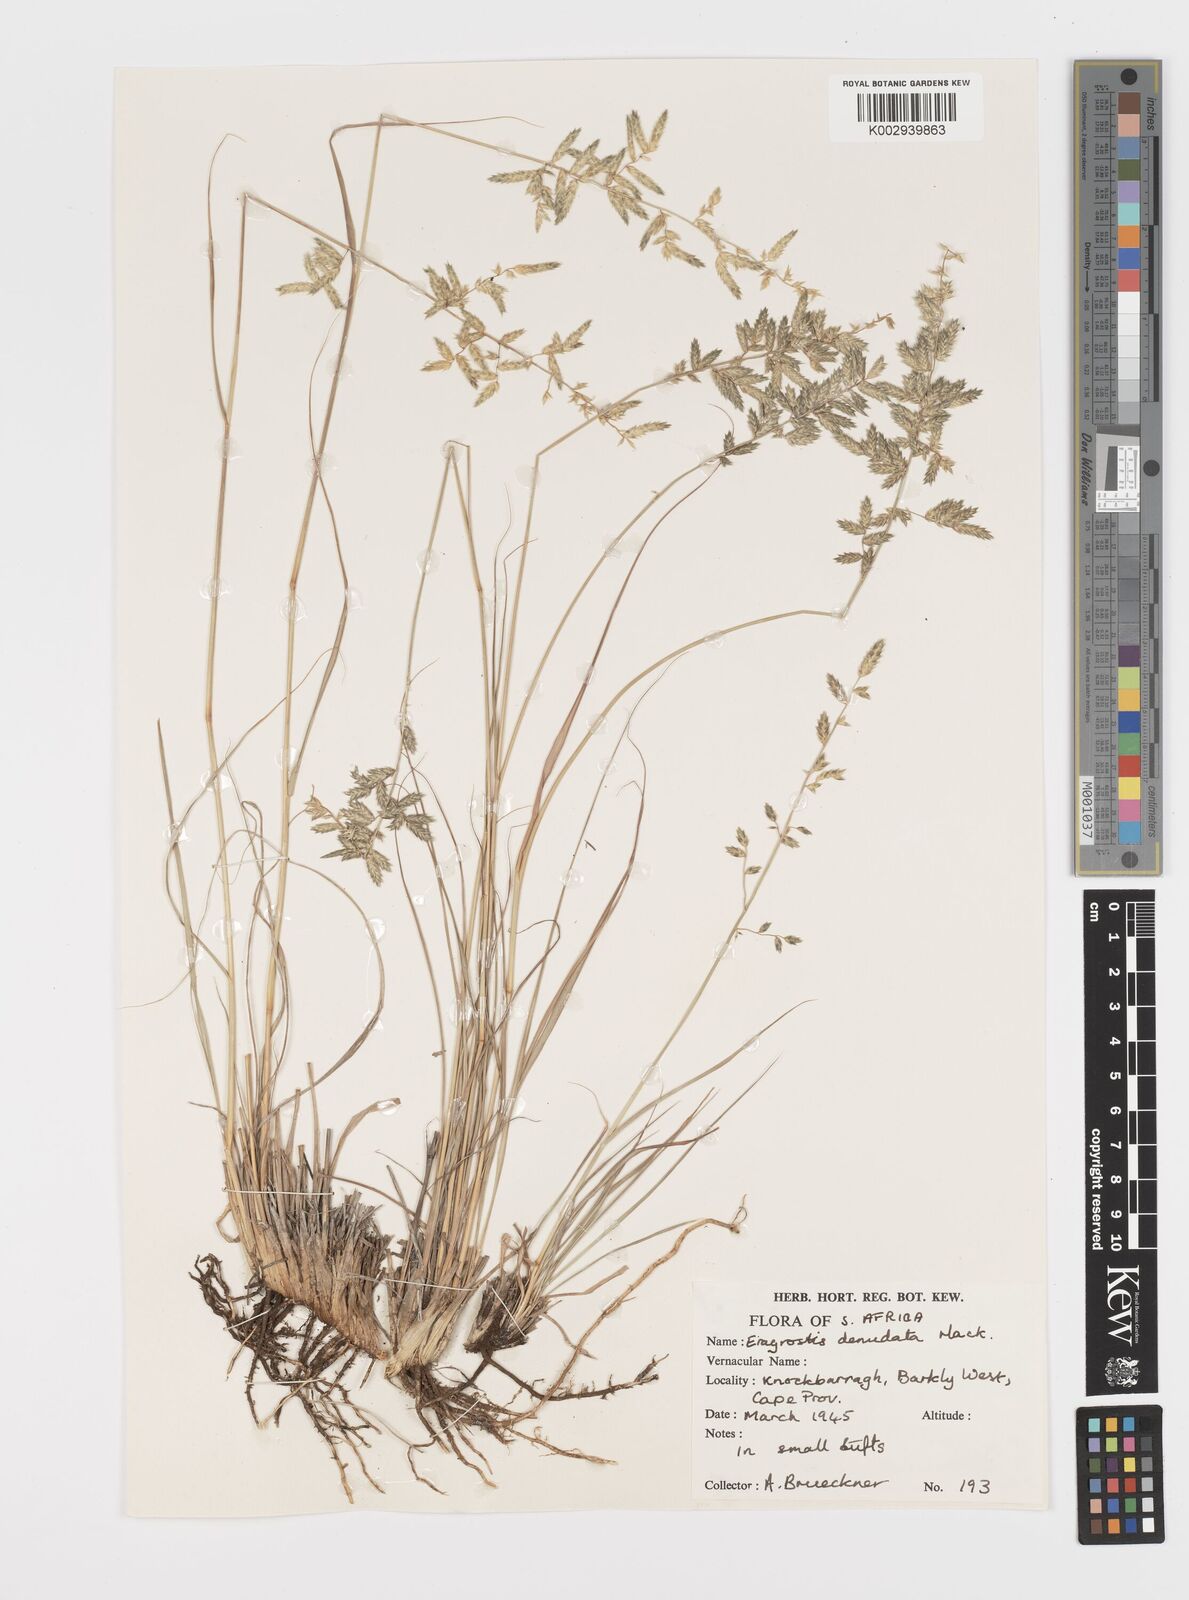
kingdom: Plantae
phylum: Tracheophyta
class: Liliopsida
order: Poales
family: Poaceae
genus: Eragrostis
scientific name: Eragrostis nindensis
